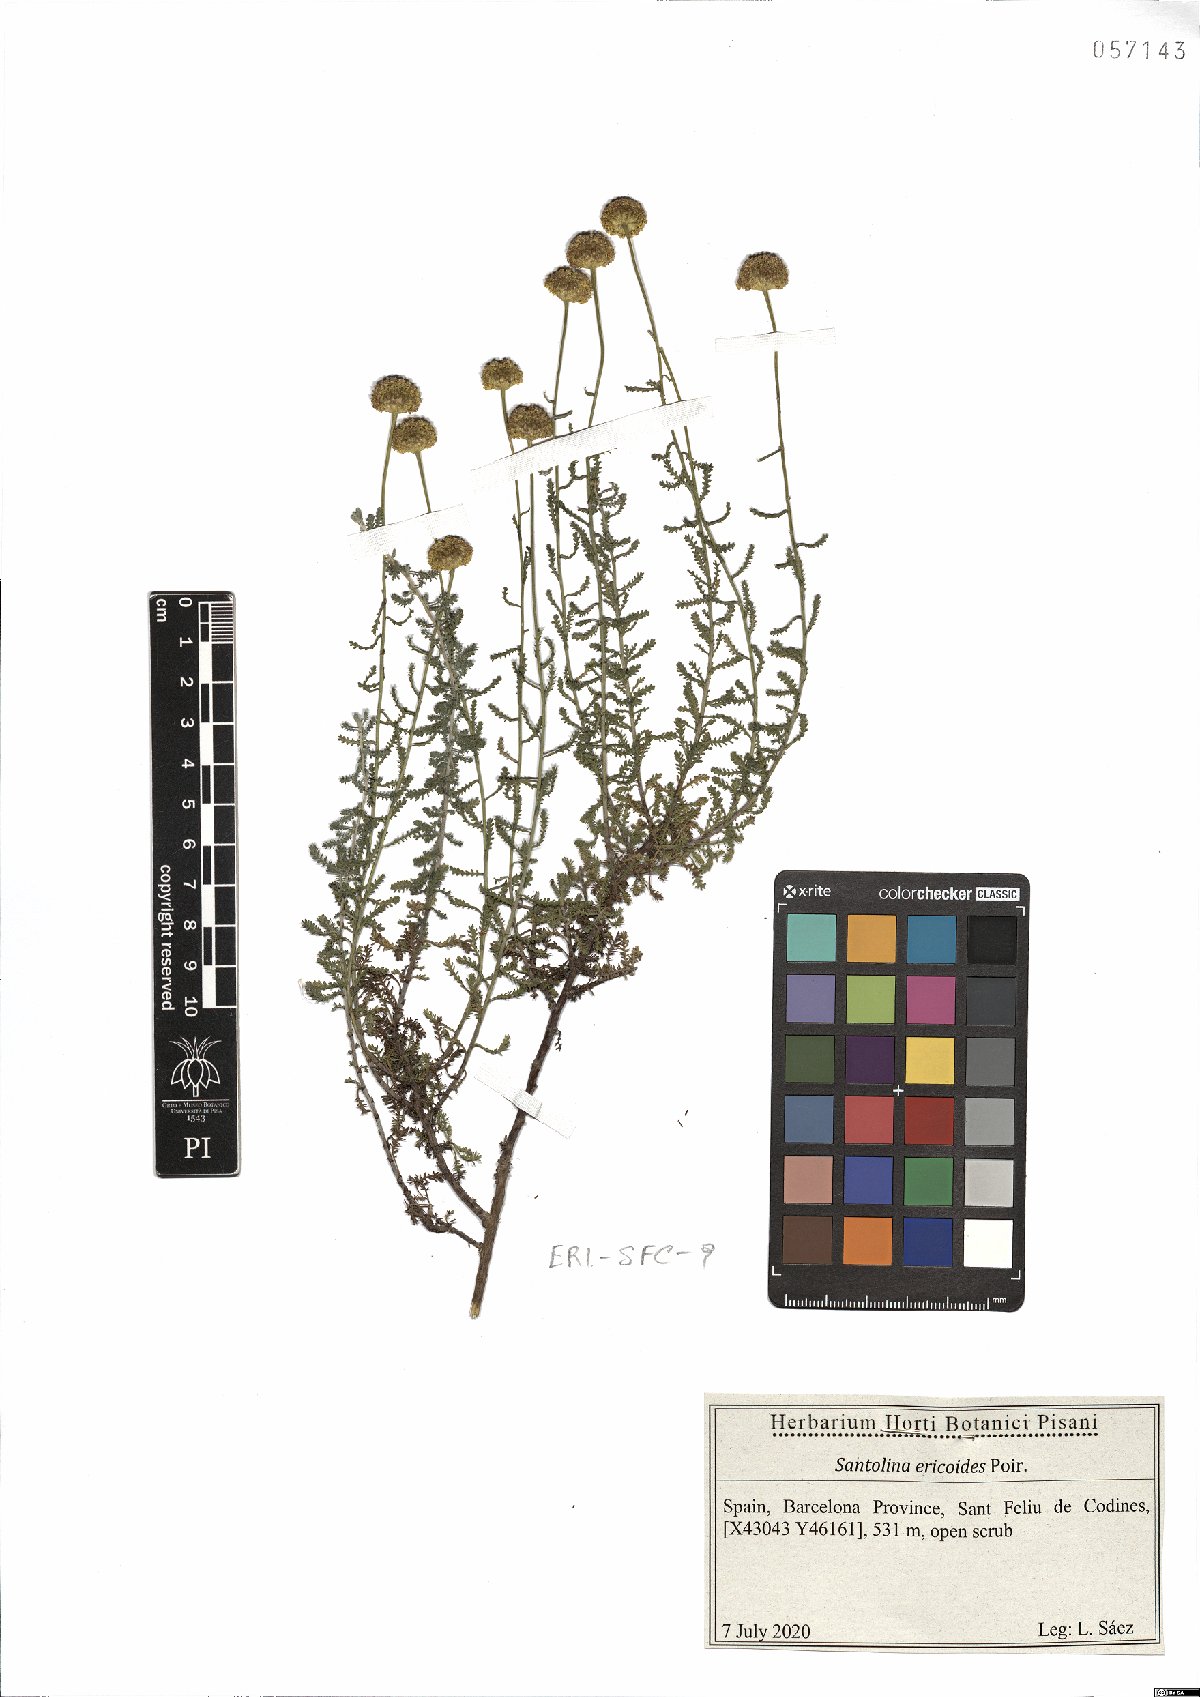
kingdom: Plantae
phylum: Tracheophyta
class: Magnoliopsida
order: Asterales
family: Asteraceae
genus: Santolina
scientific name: Santolina ericoides
